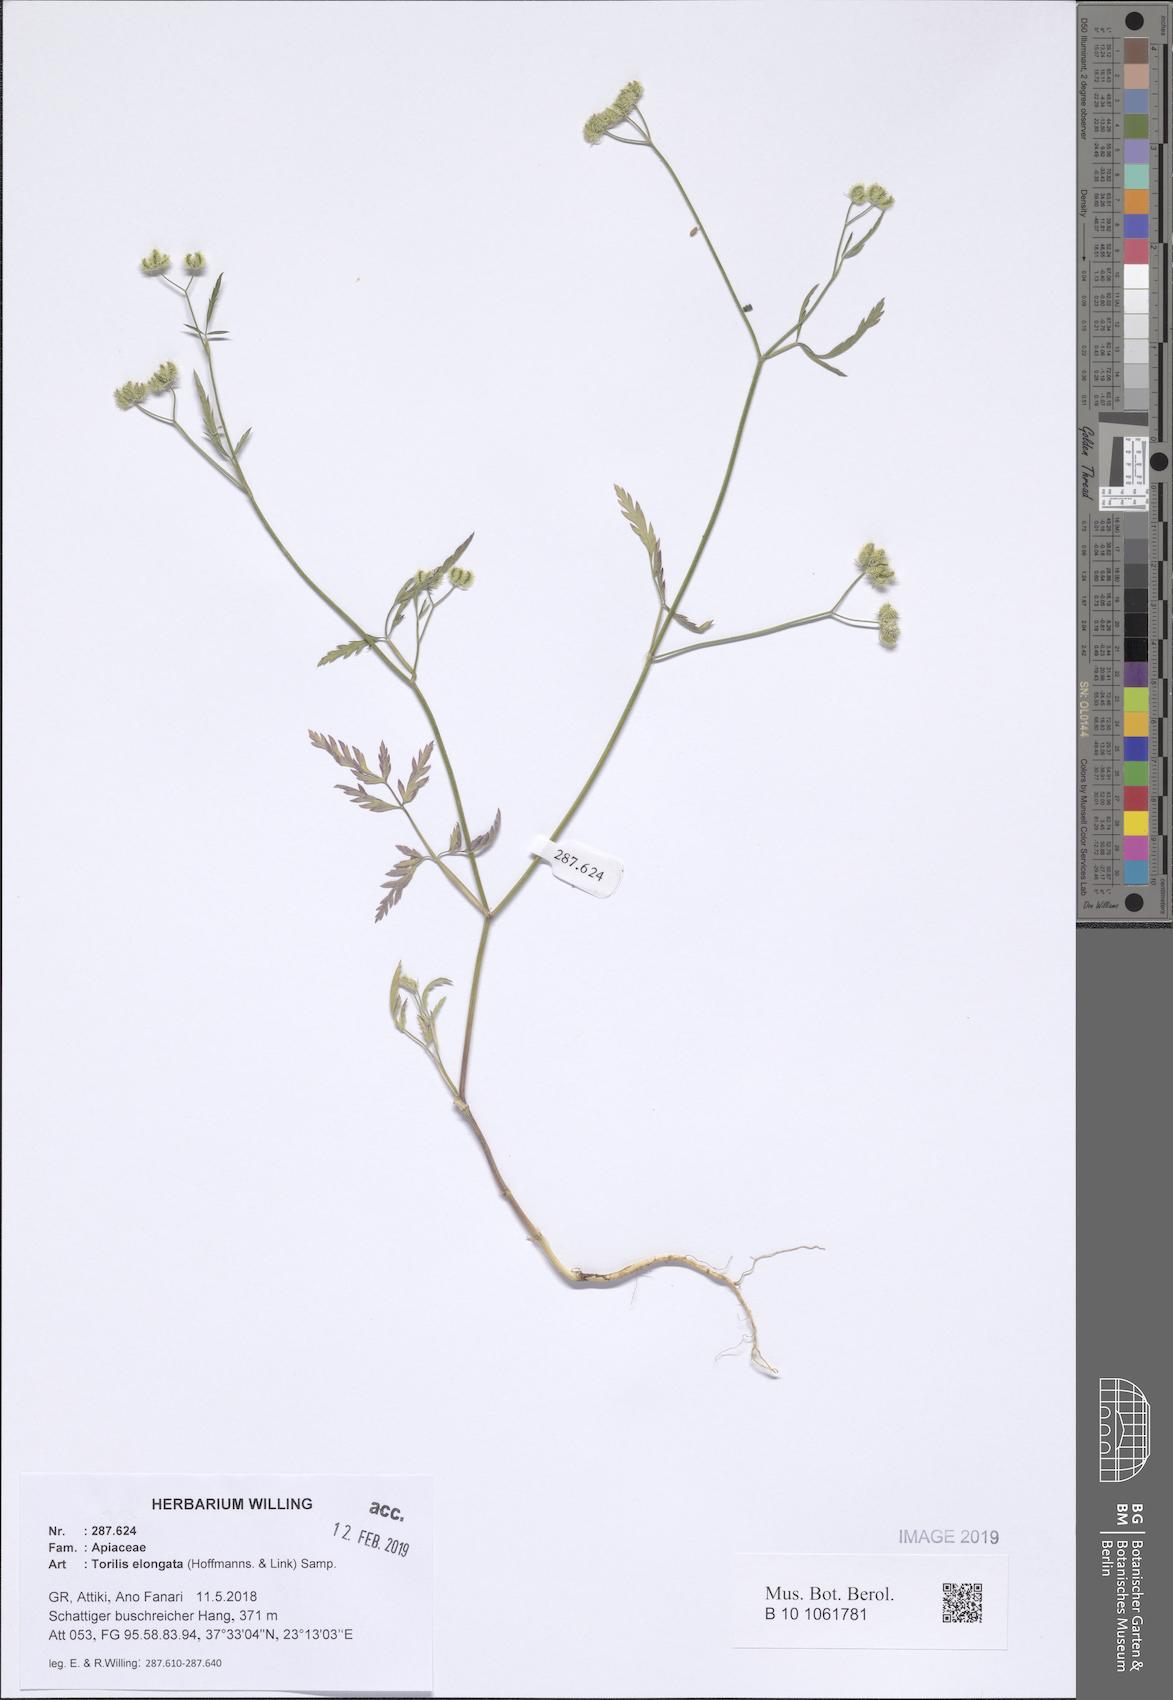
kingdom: Plantae
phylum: Tracheophyta
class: Magnoliopsida
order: Apiales
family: Apiaceae
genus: Torilis
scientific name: Torilis elongata
